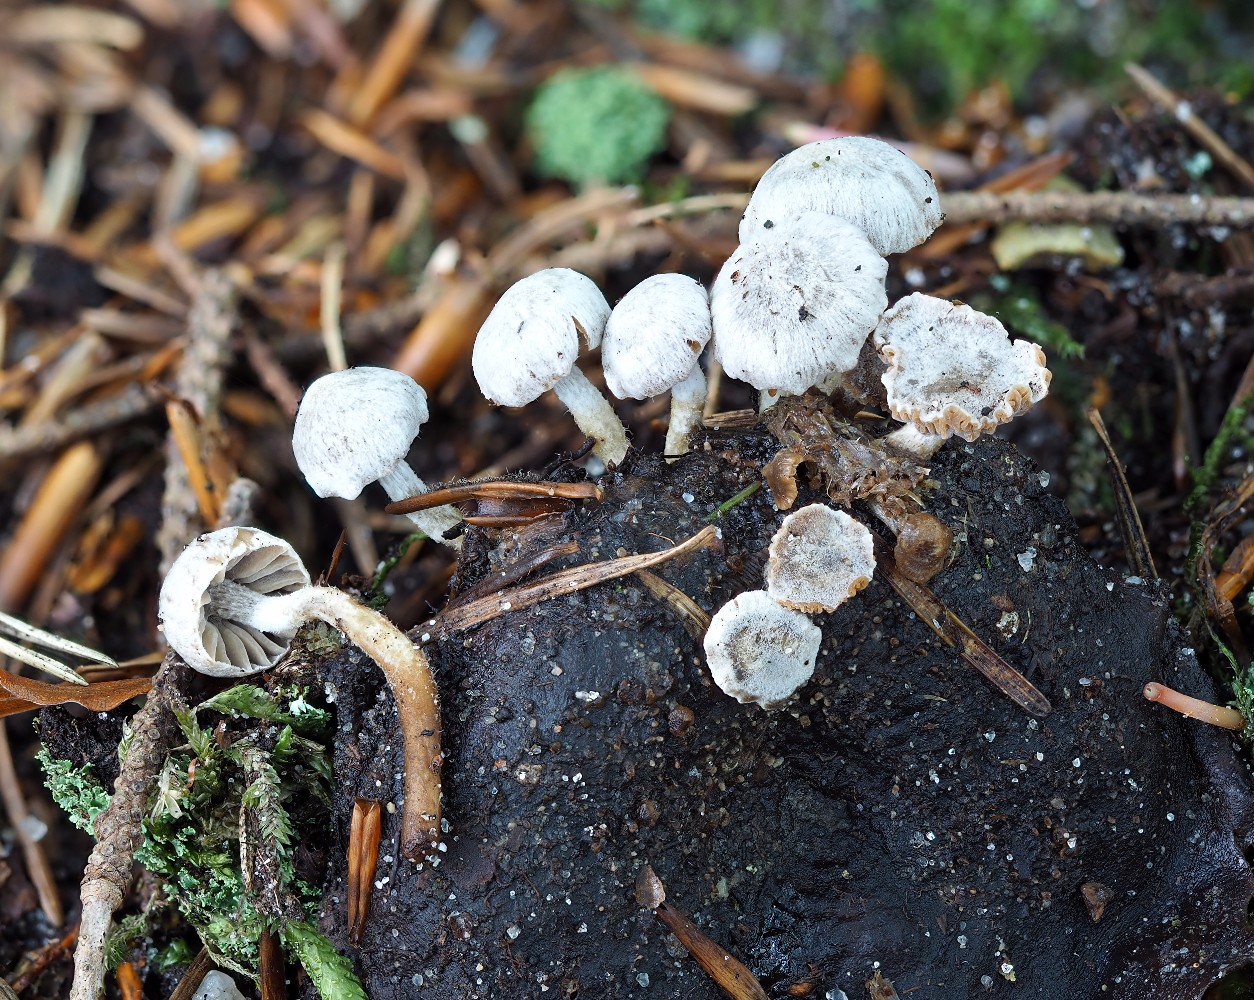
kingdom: Fungi
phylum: Basidiomycota
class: Agaricomycetes
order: Agaricales
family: Lyophyllaceae
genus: Asterophora
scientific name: Asterophora parasitica
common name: grå snyltehat
